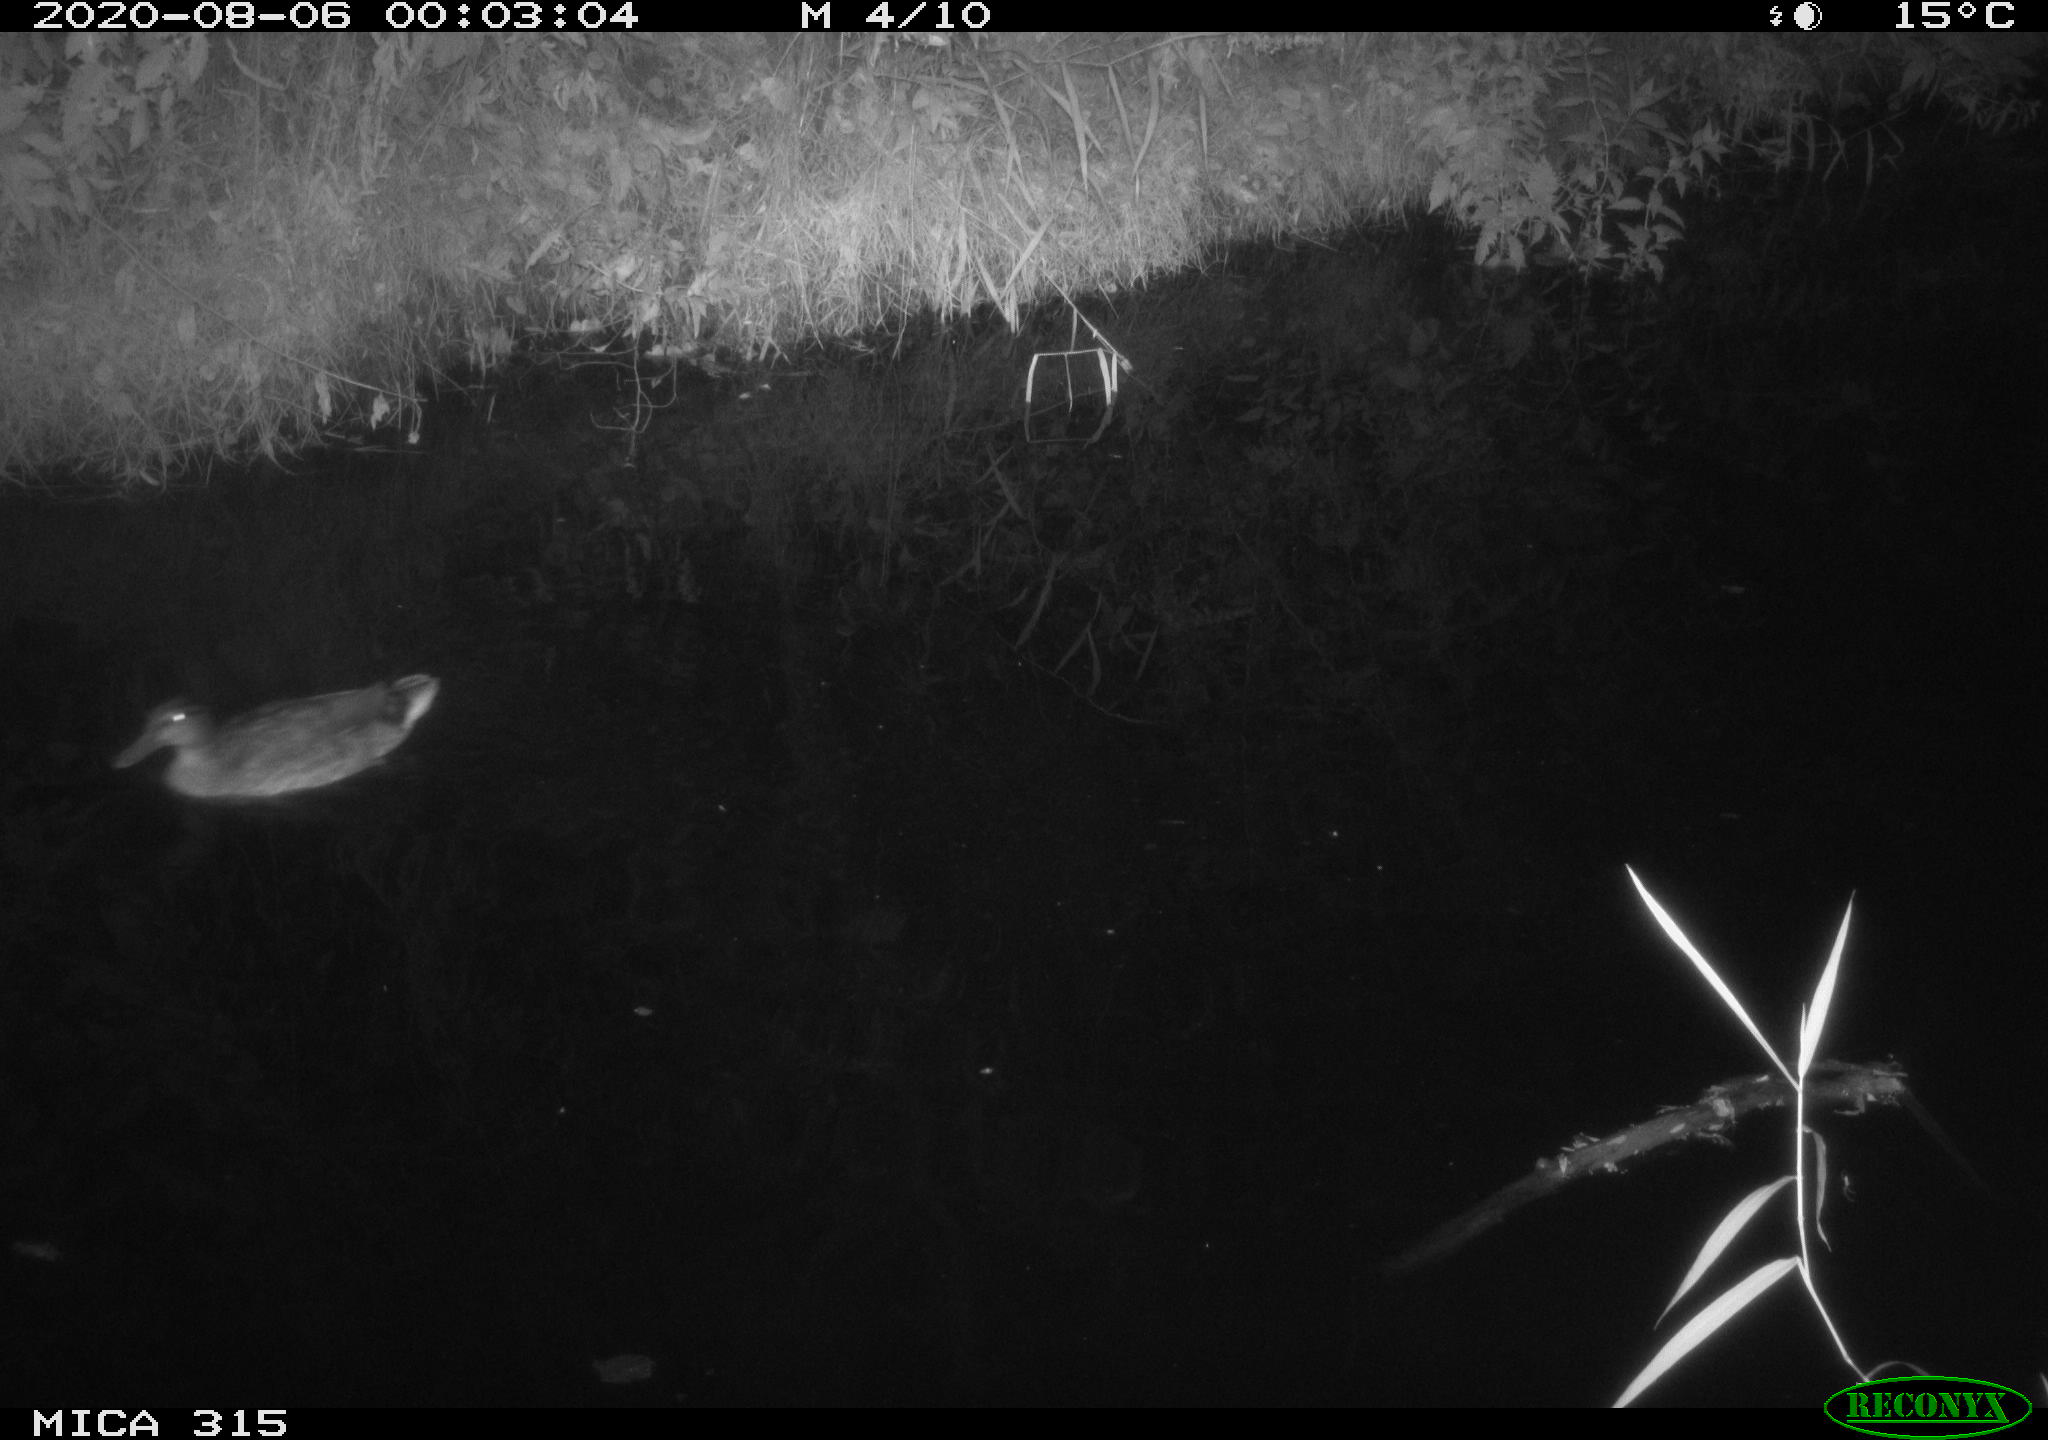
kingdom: Animalia
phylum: Chordata
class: Aves
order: Anseriformes
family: Anatidae
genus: Anas
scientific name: Anas platyrhynchos
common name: Mallard
